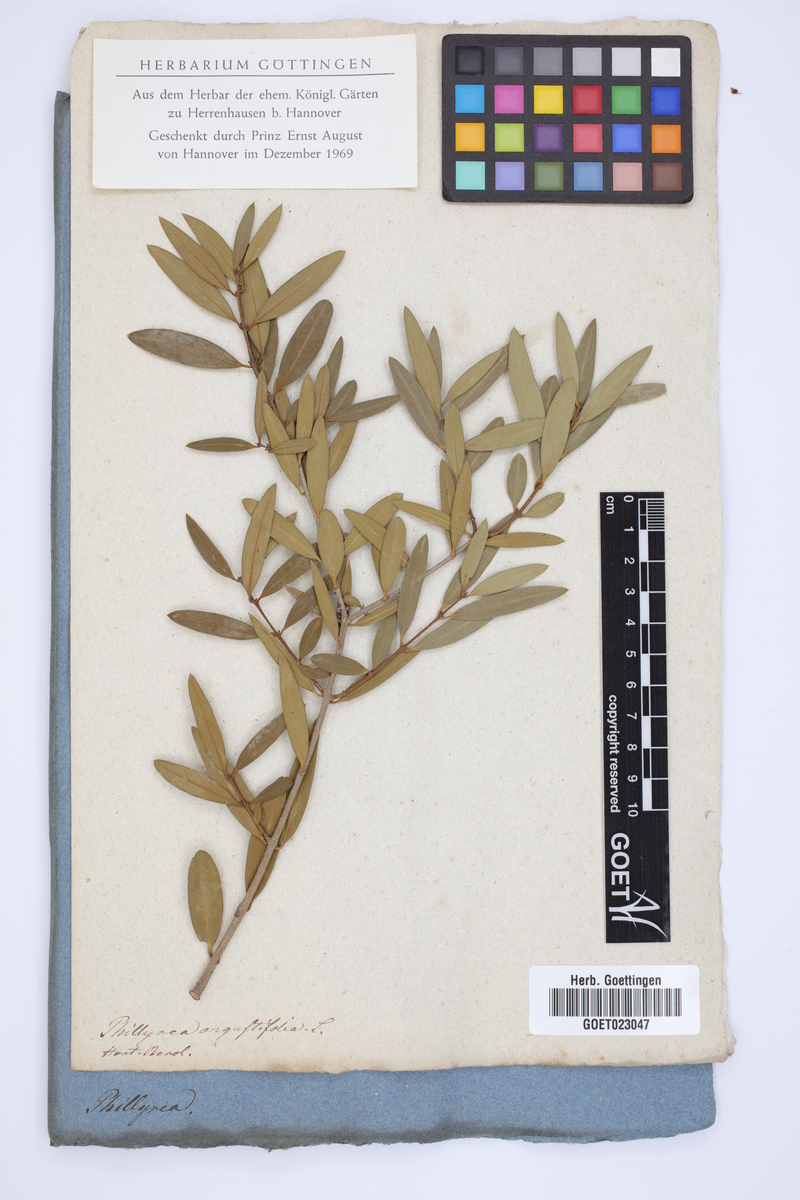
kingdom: Plantae
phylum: Tracheophyta
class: Magnoliopsida
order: Lamiales
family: Oleaceae
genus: Phillyrea
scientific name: Phillyrea angustifolia
